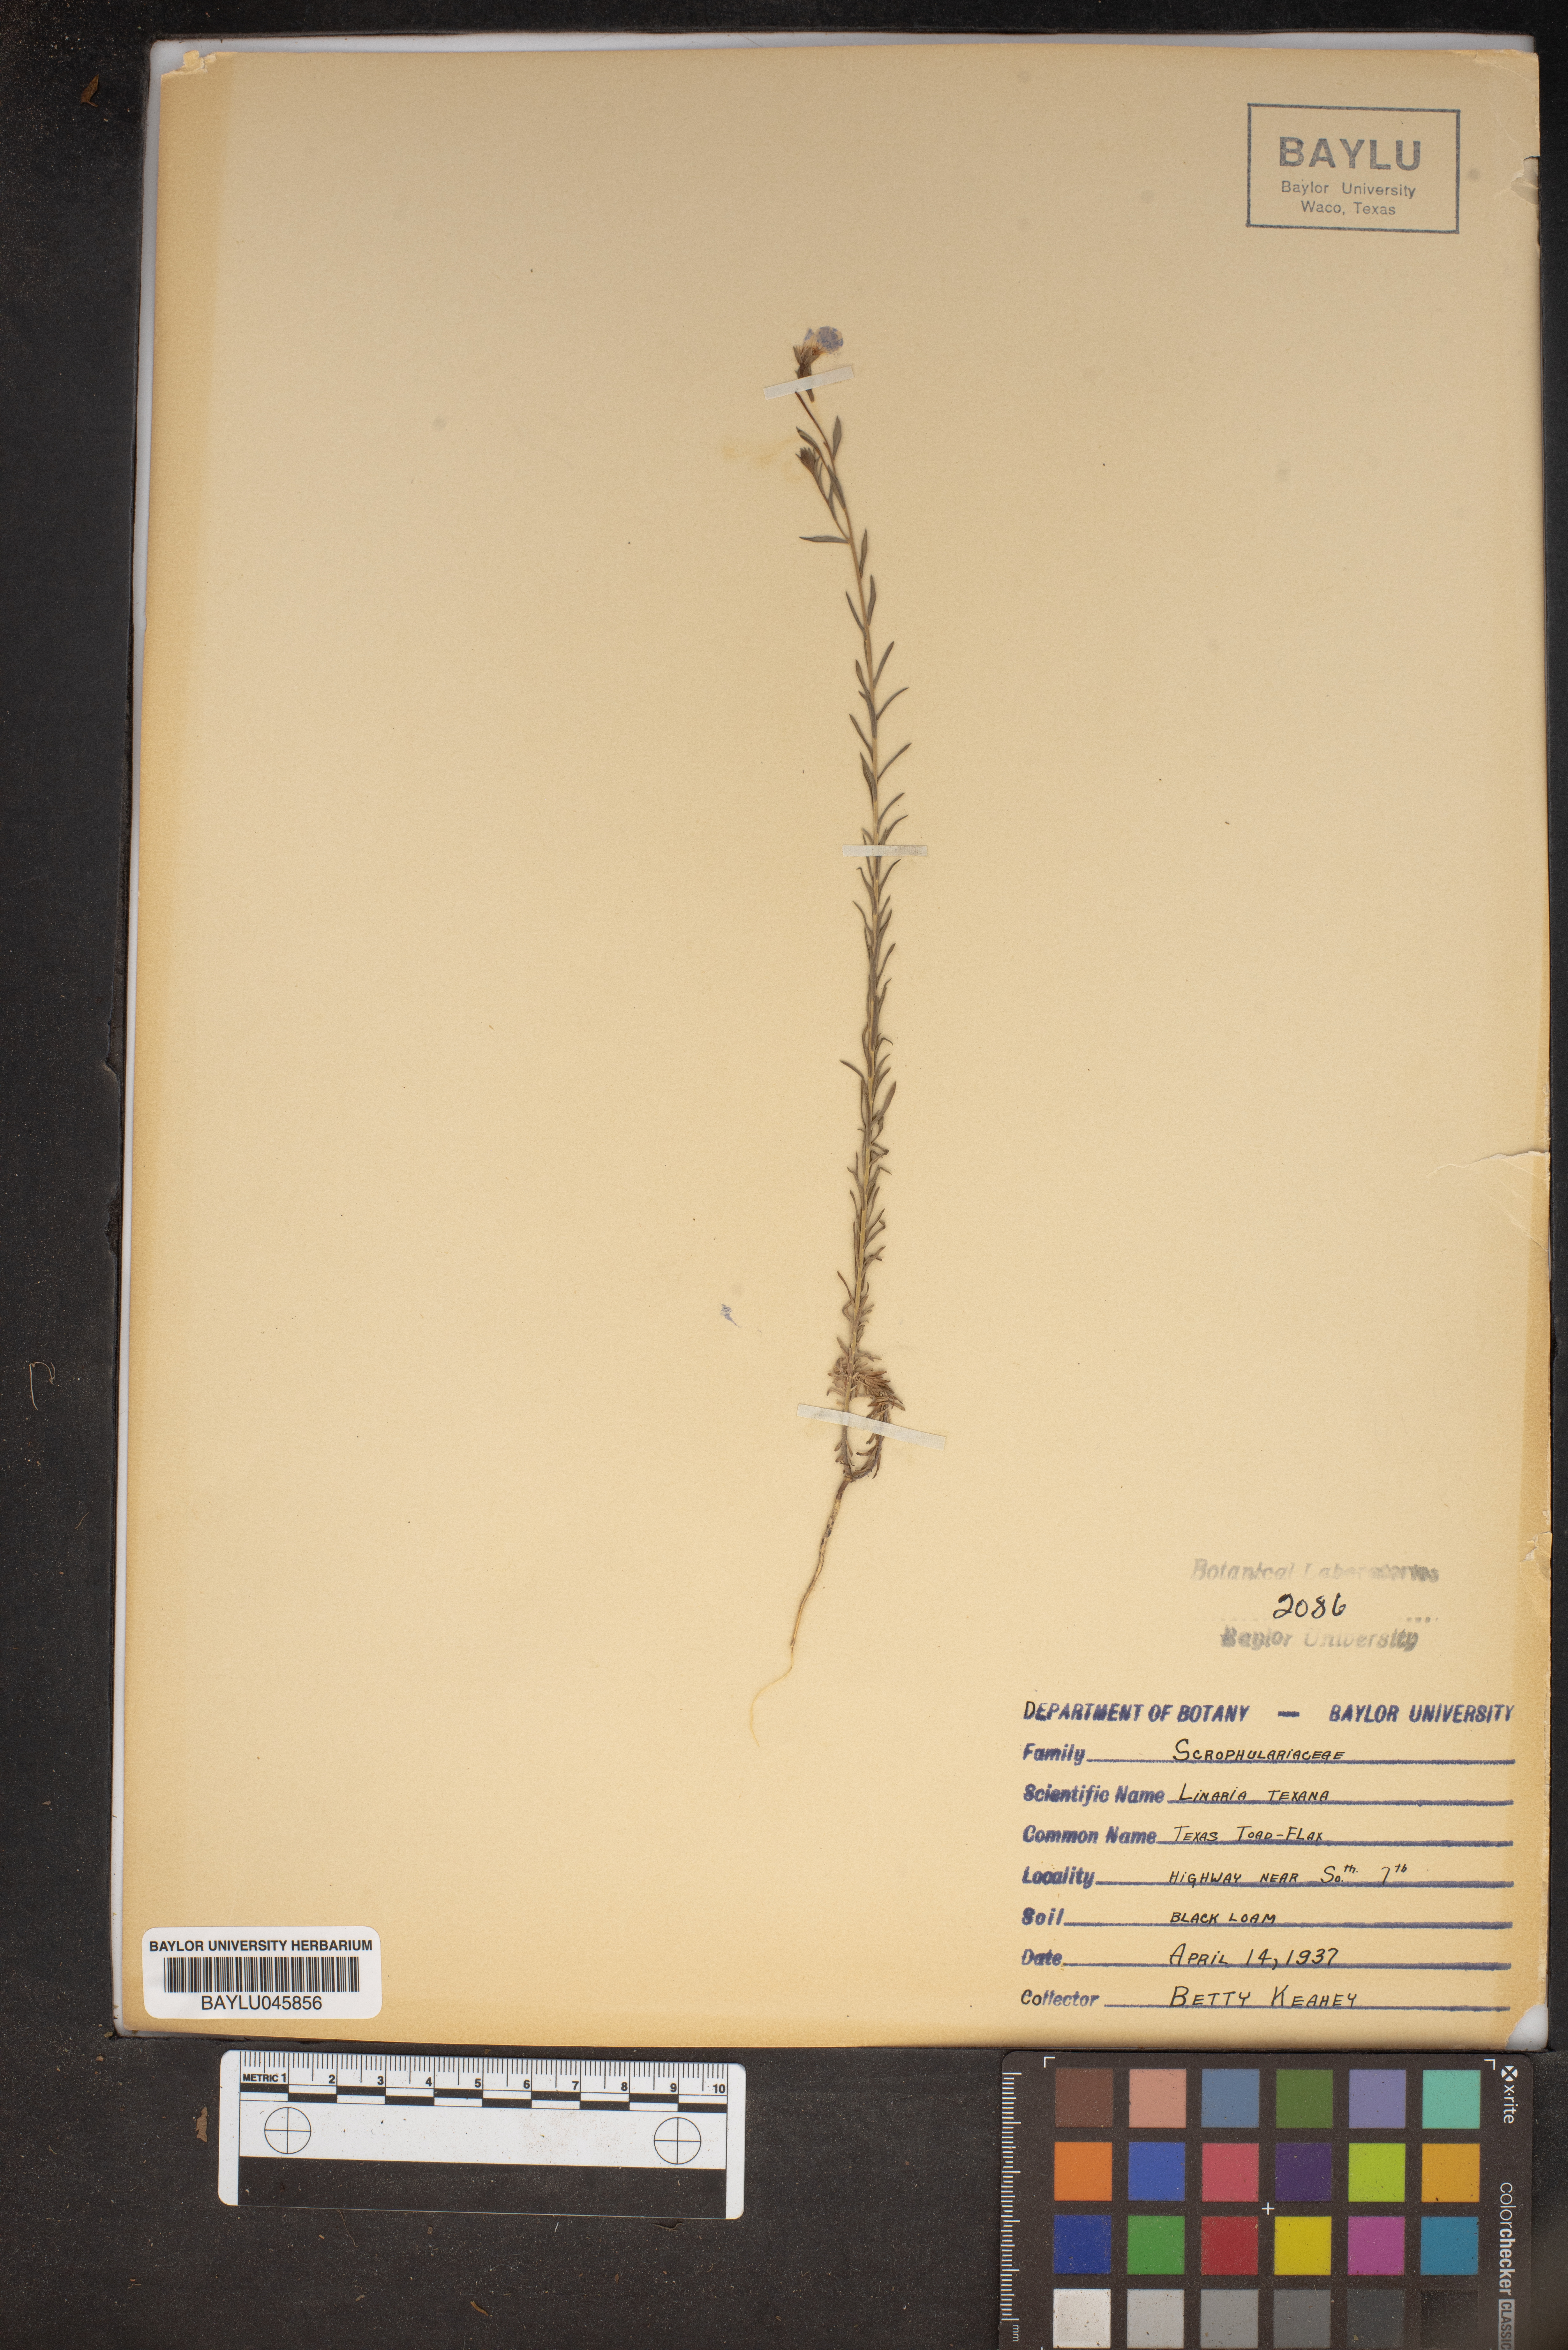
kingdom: Plantae
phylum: Tracheophyta
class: Magnoliopsida
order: Lamiales
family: Plantaginaceae
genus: Nuttallanthus
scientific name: Nuttallanthus texanus
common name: Texas toadflax
